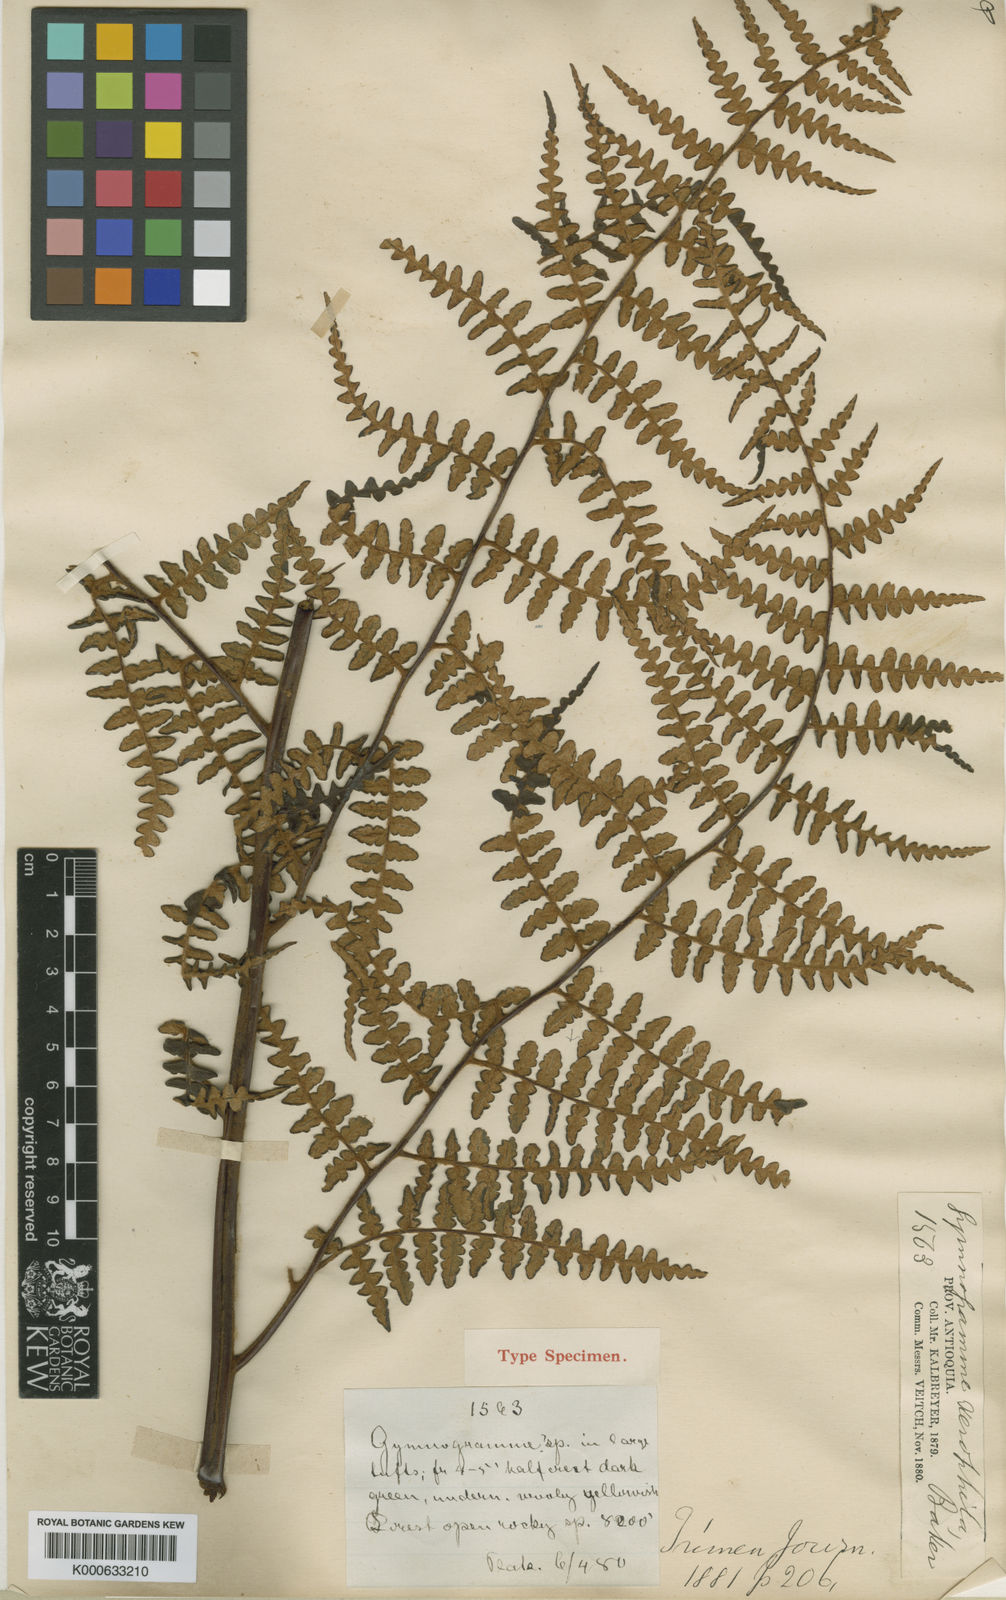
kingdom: Plantae
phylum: Tracheophyta
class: Polypodiopsida
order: Polypodiales
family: Pteridaceae
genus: Pityrogramma
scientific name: Pityrogramma jamesonii
